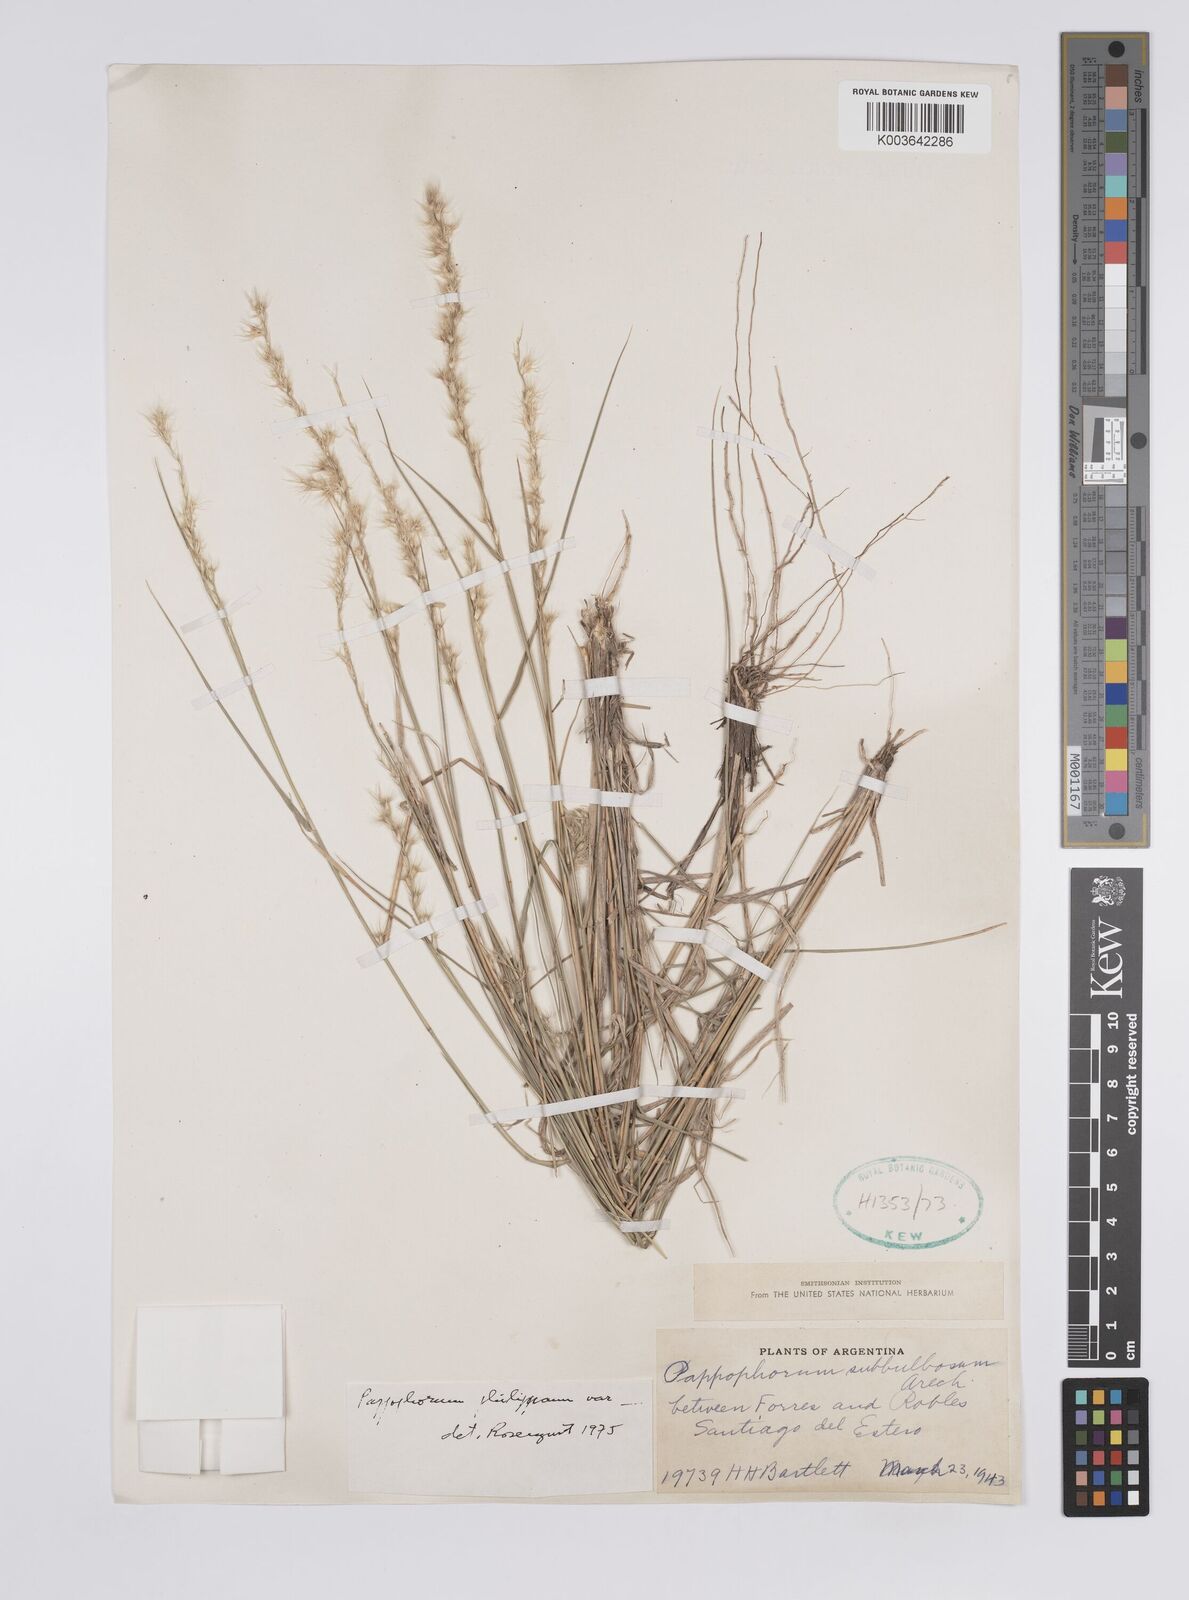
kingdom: Plantae
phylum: Tracheophyta
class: Liliopsida
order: Poales
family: Poaceae
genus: Pappophorum
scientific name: Pappophorum philippianum
